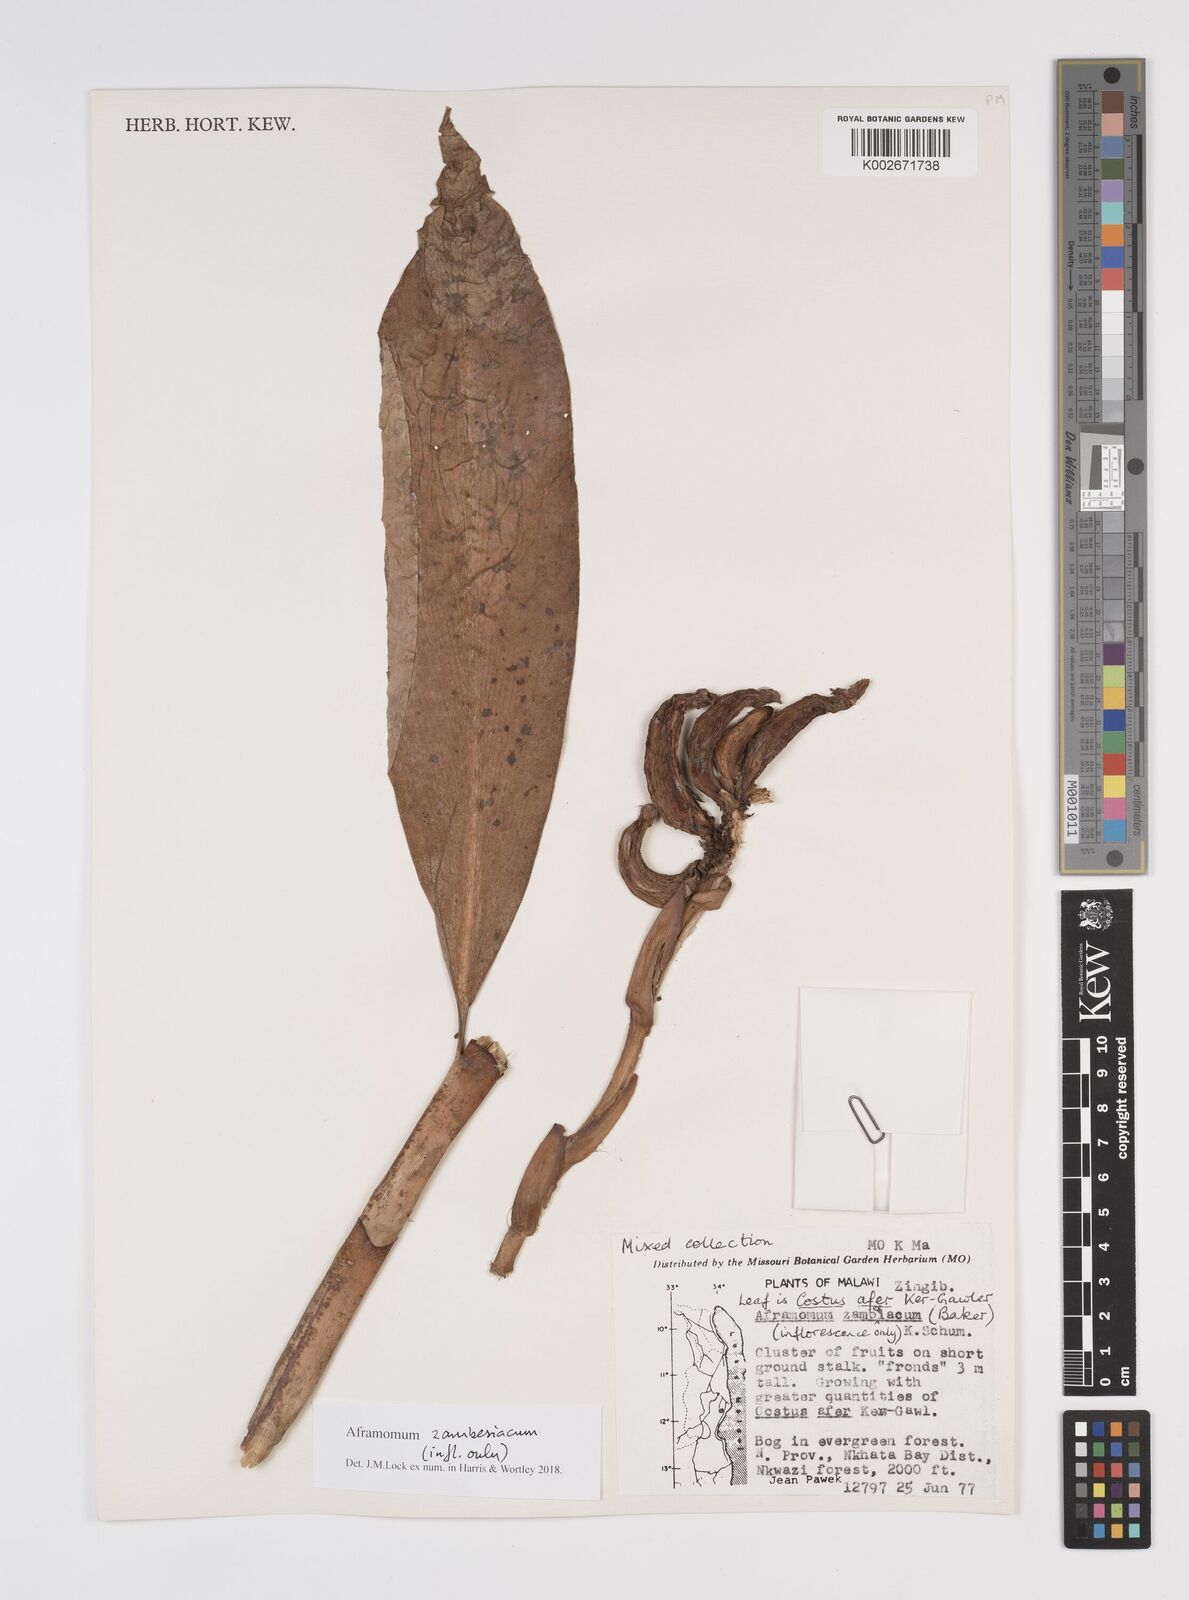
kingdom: Plantae
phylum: Tracheophyta
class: Liliopsida
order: Zingiberales
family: Zingiberaceae
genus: Aframomum
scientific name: Aframomum zambesiacum
